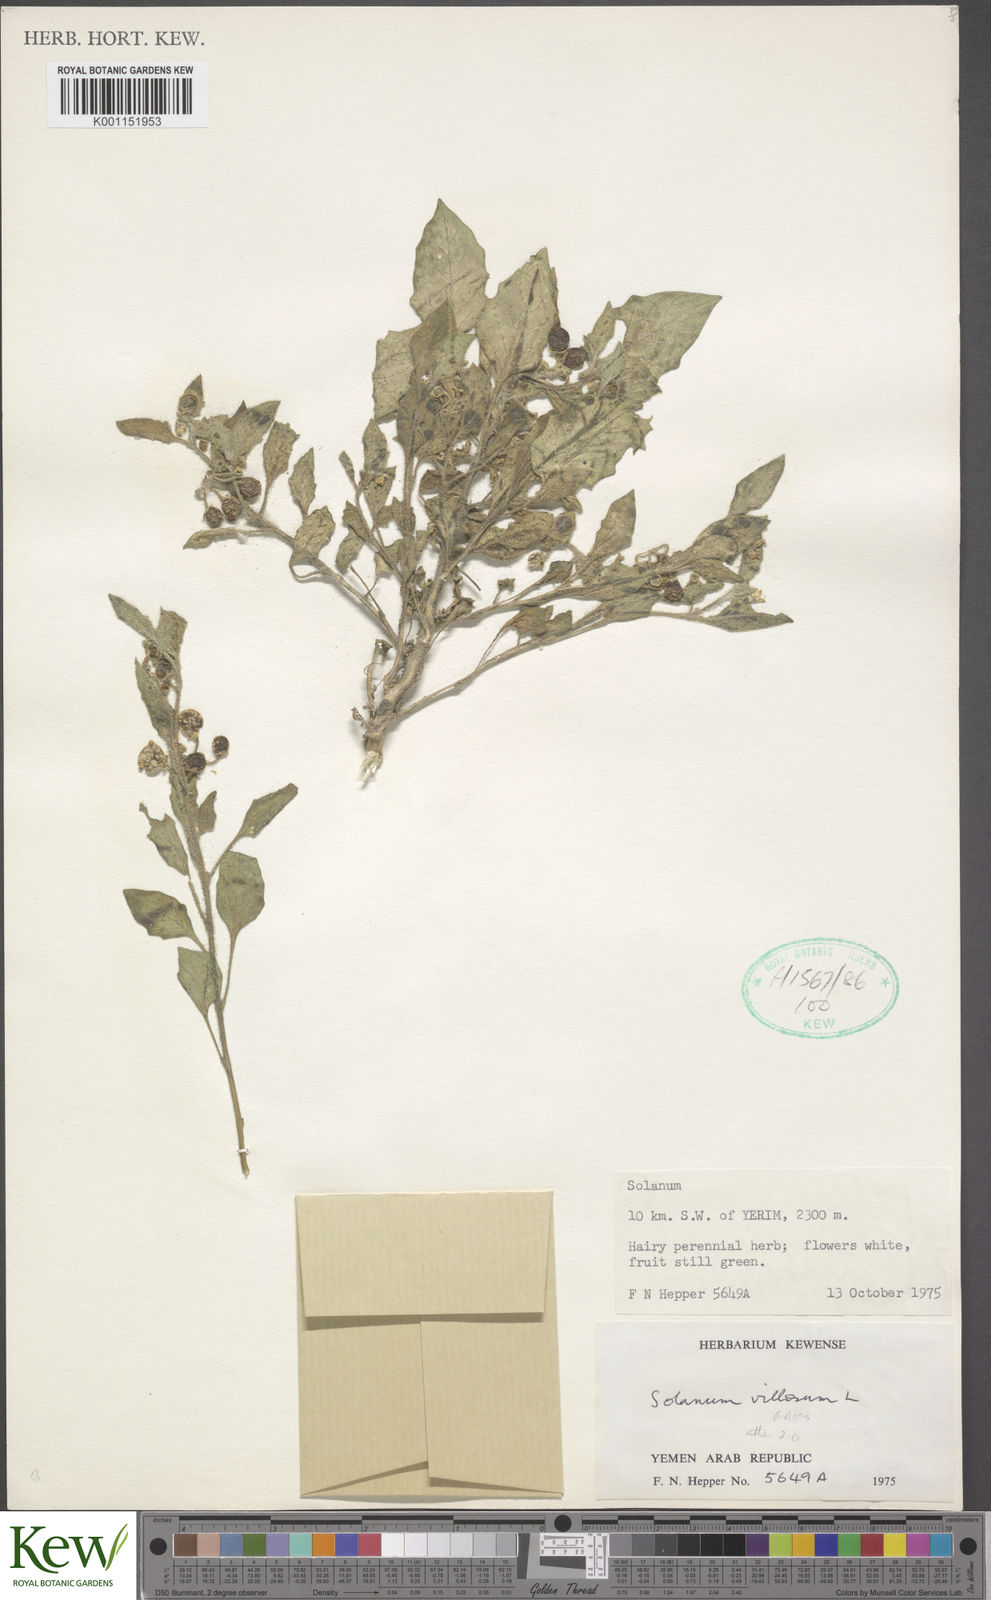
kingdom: Plantae
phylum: Tracheophyta
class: Magnoliopsida
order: Solanales
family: Solanaceae
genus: Solanum
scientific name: Solanum memphiticum
